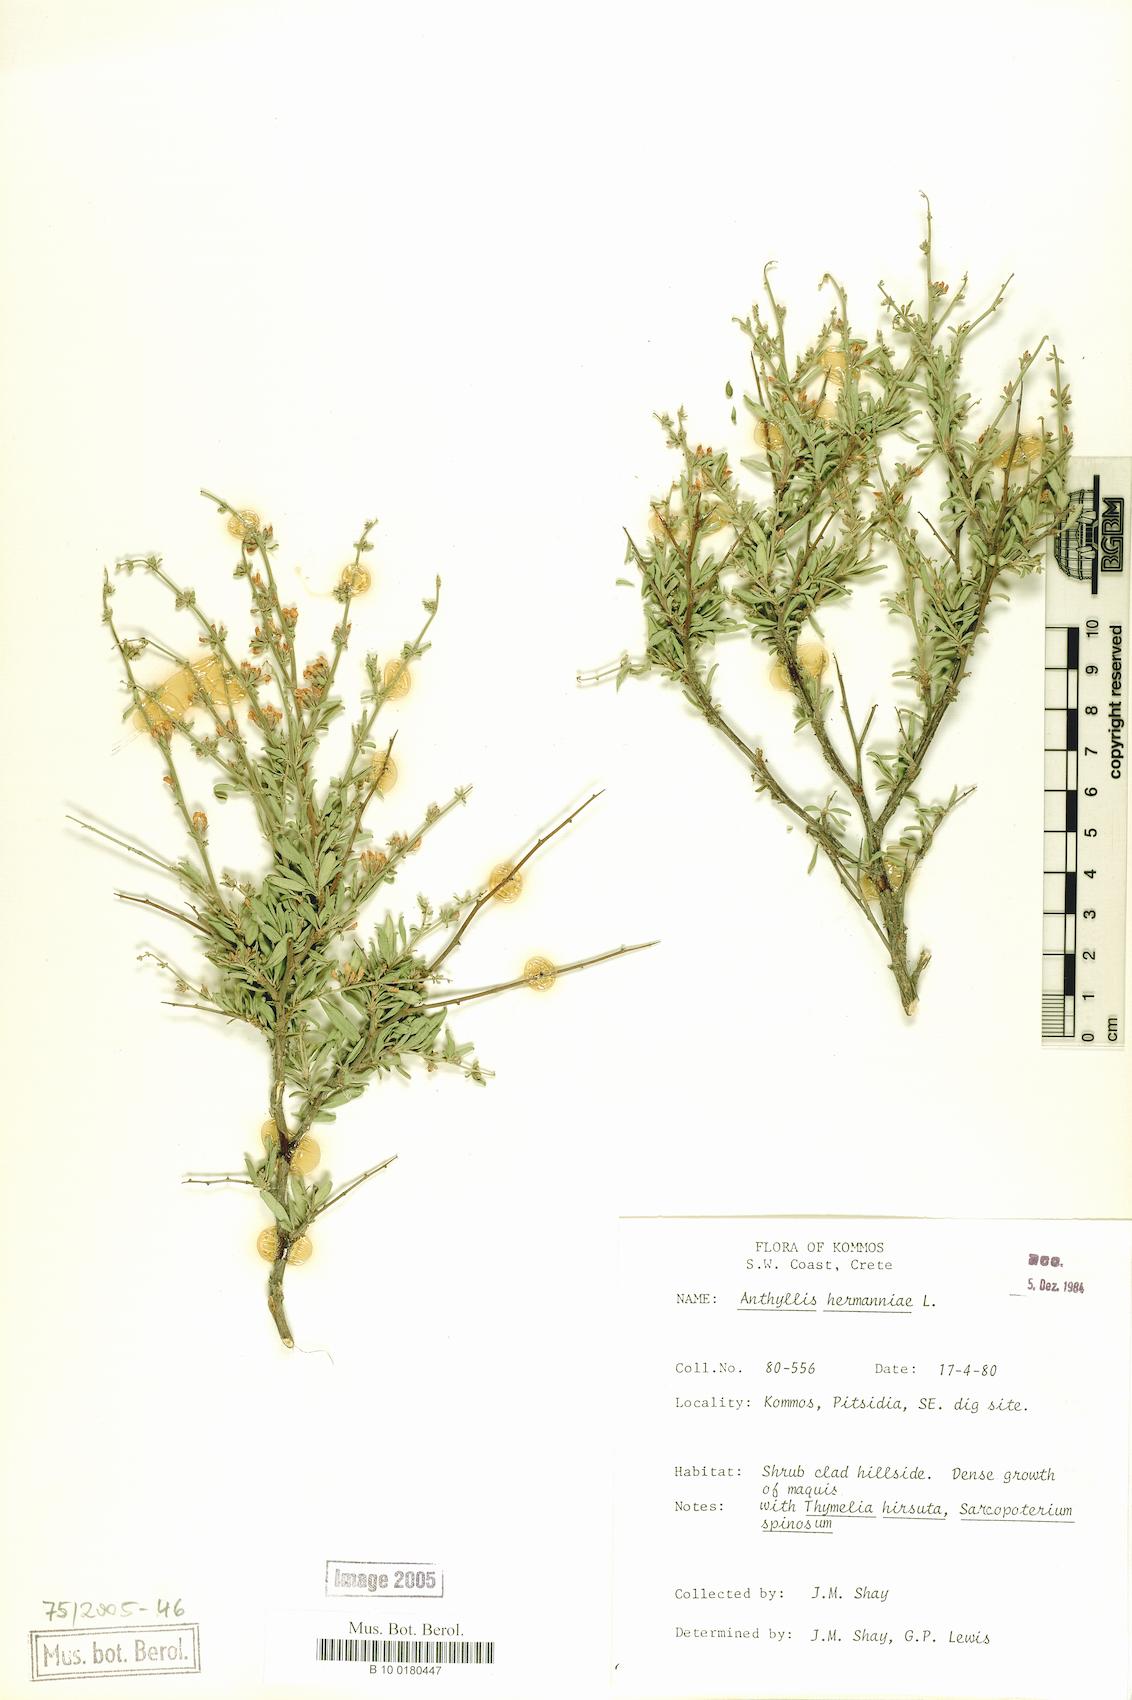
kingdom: Plantae
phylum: Tracheophyta
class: Magnoliopsida
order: Fabales
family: Fabaceae
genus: Anthyllis
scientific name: Anthyllis hermanniae
